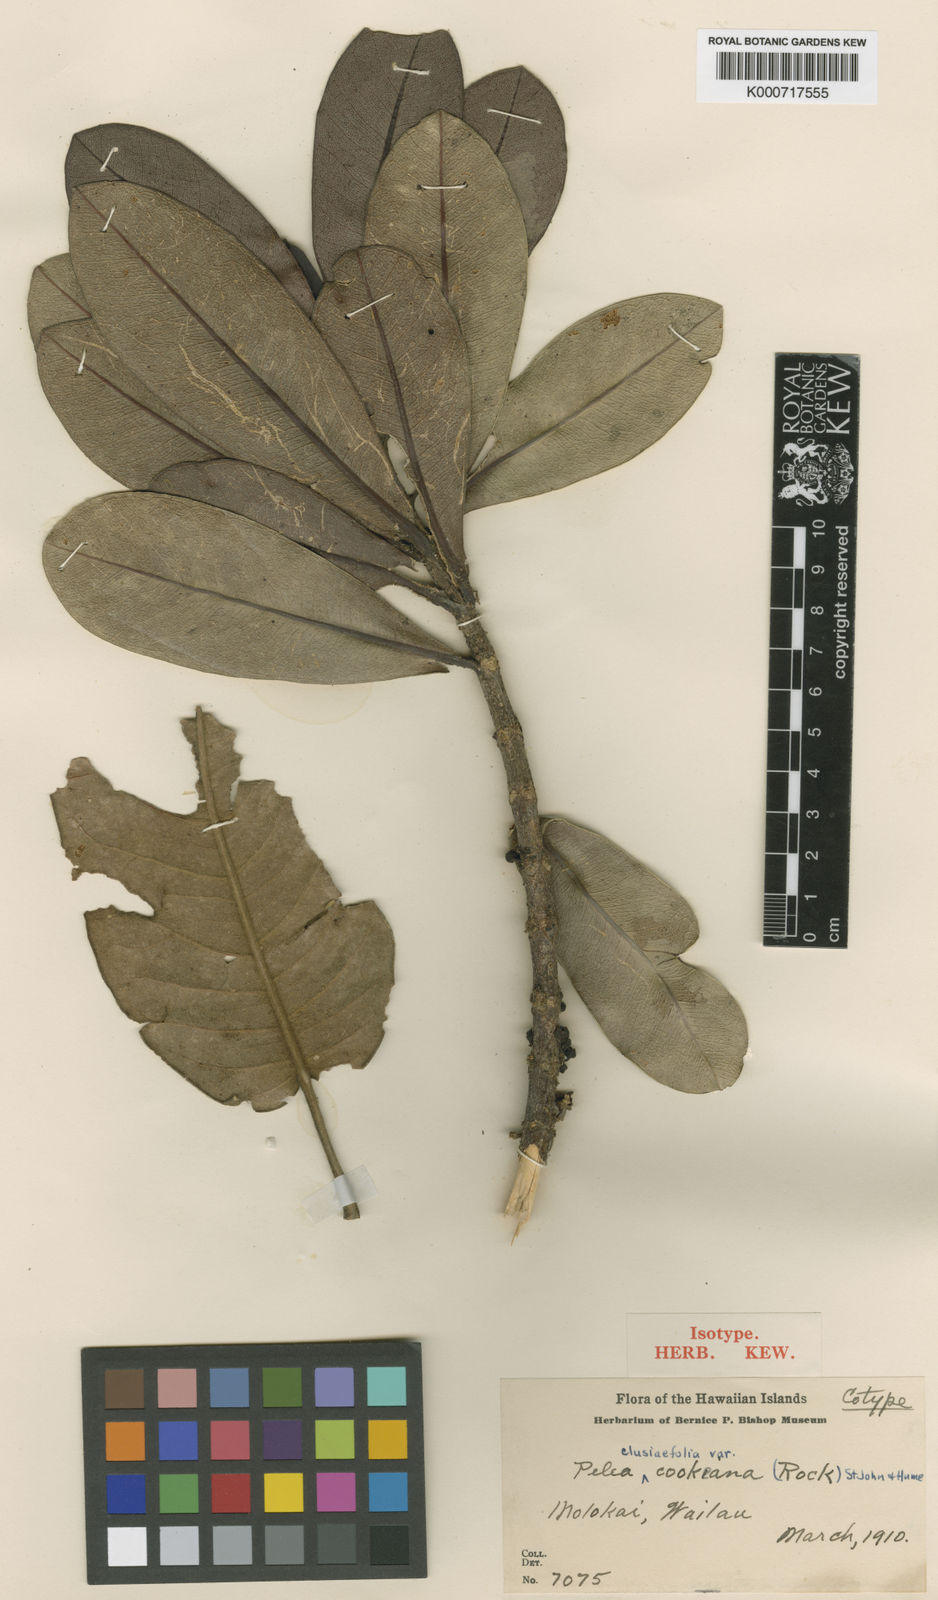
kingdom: Plantae
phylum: Tracheophyta
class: Magnoliopsida
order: Sapindales
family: Rutaceae
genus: Melicope
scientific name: Melicope clusiifolia
